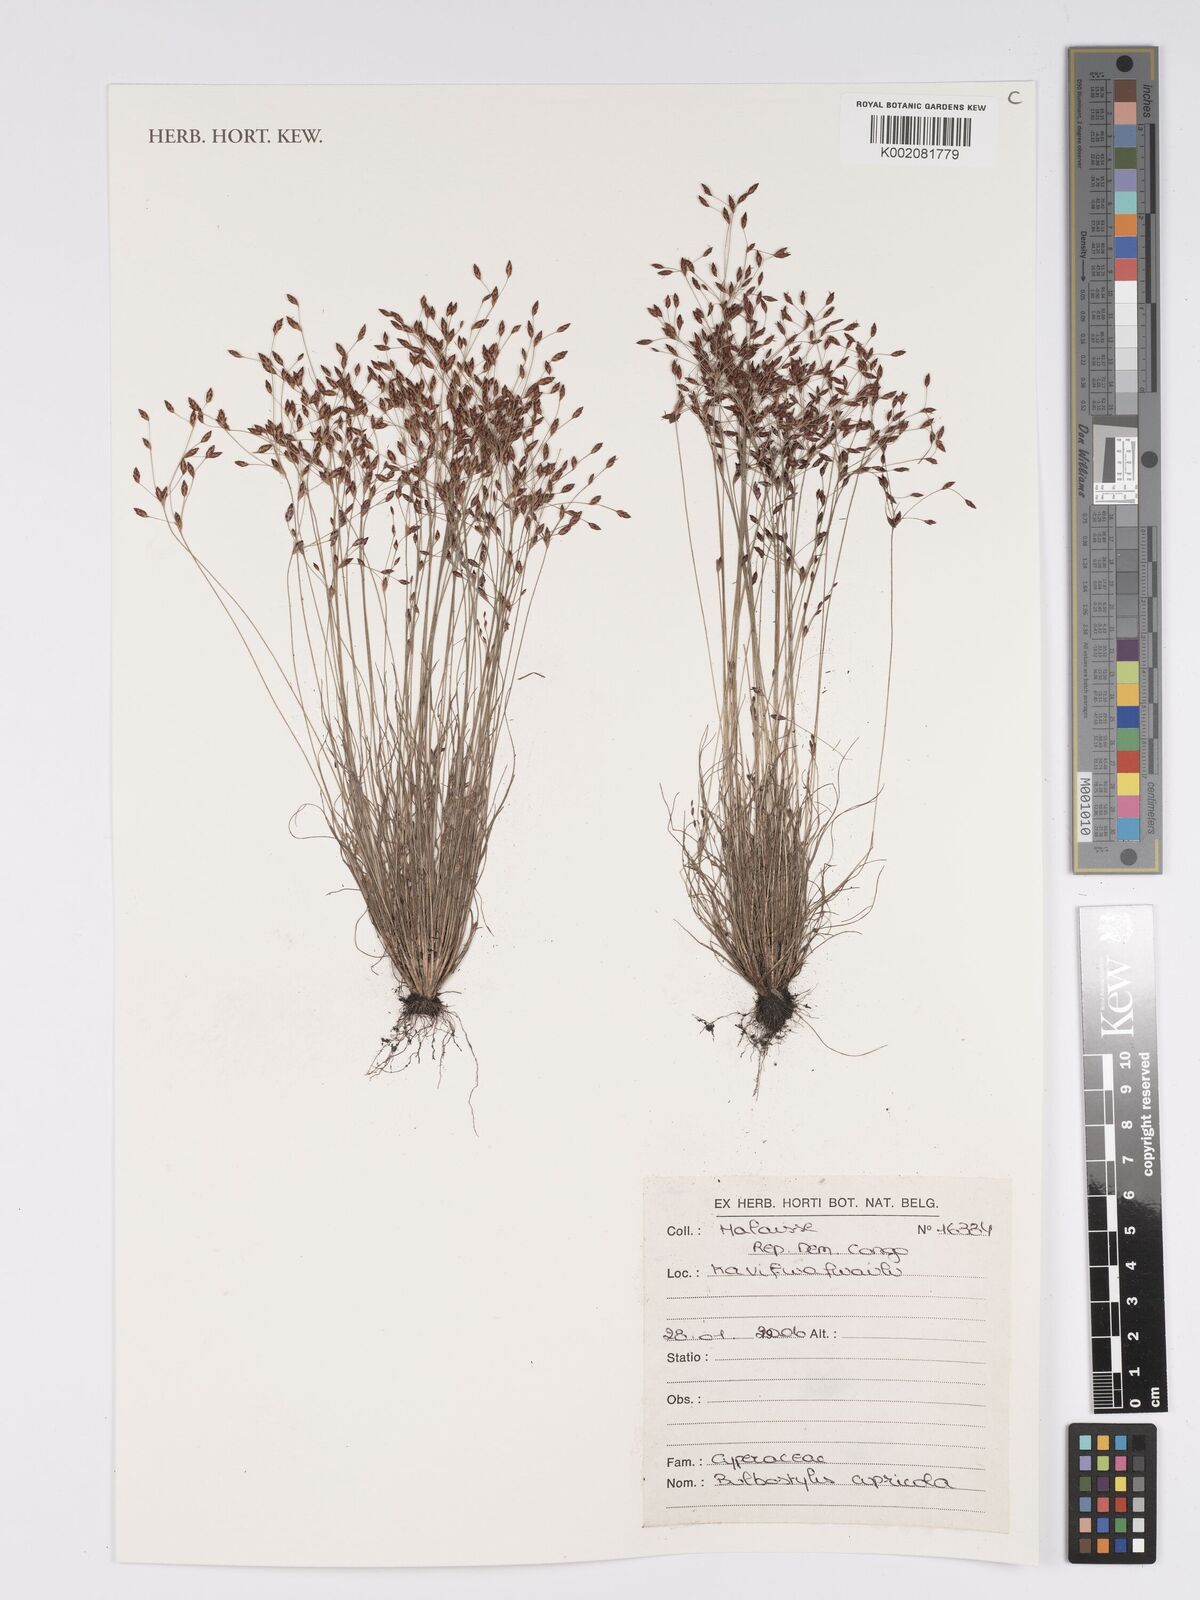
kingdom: Plantae
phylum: Tracheophyta
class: Liliopsida
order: Poales
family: Cyperaceae
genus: Bulbostylis
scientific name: Bulbostylis cupricola
